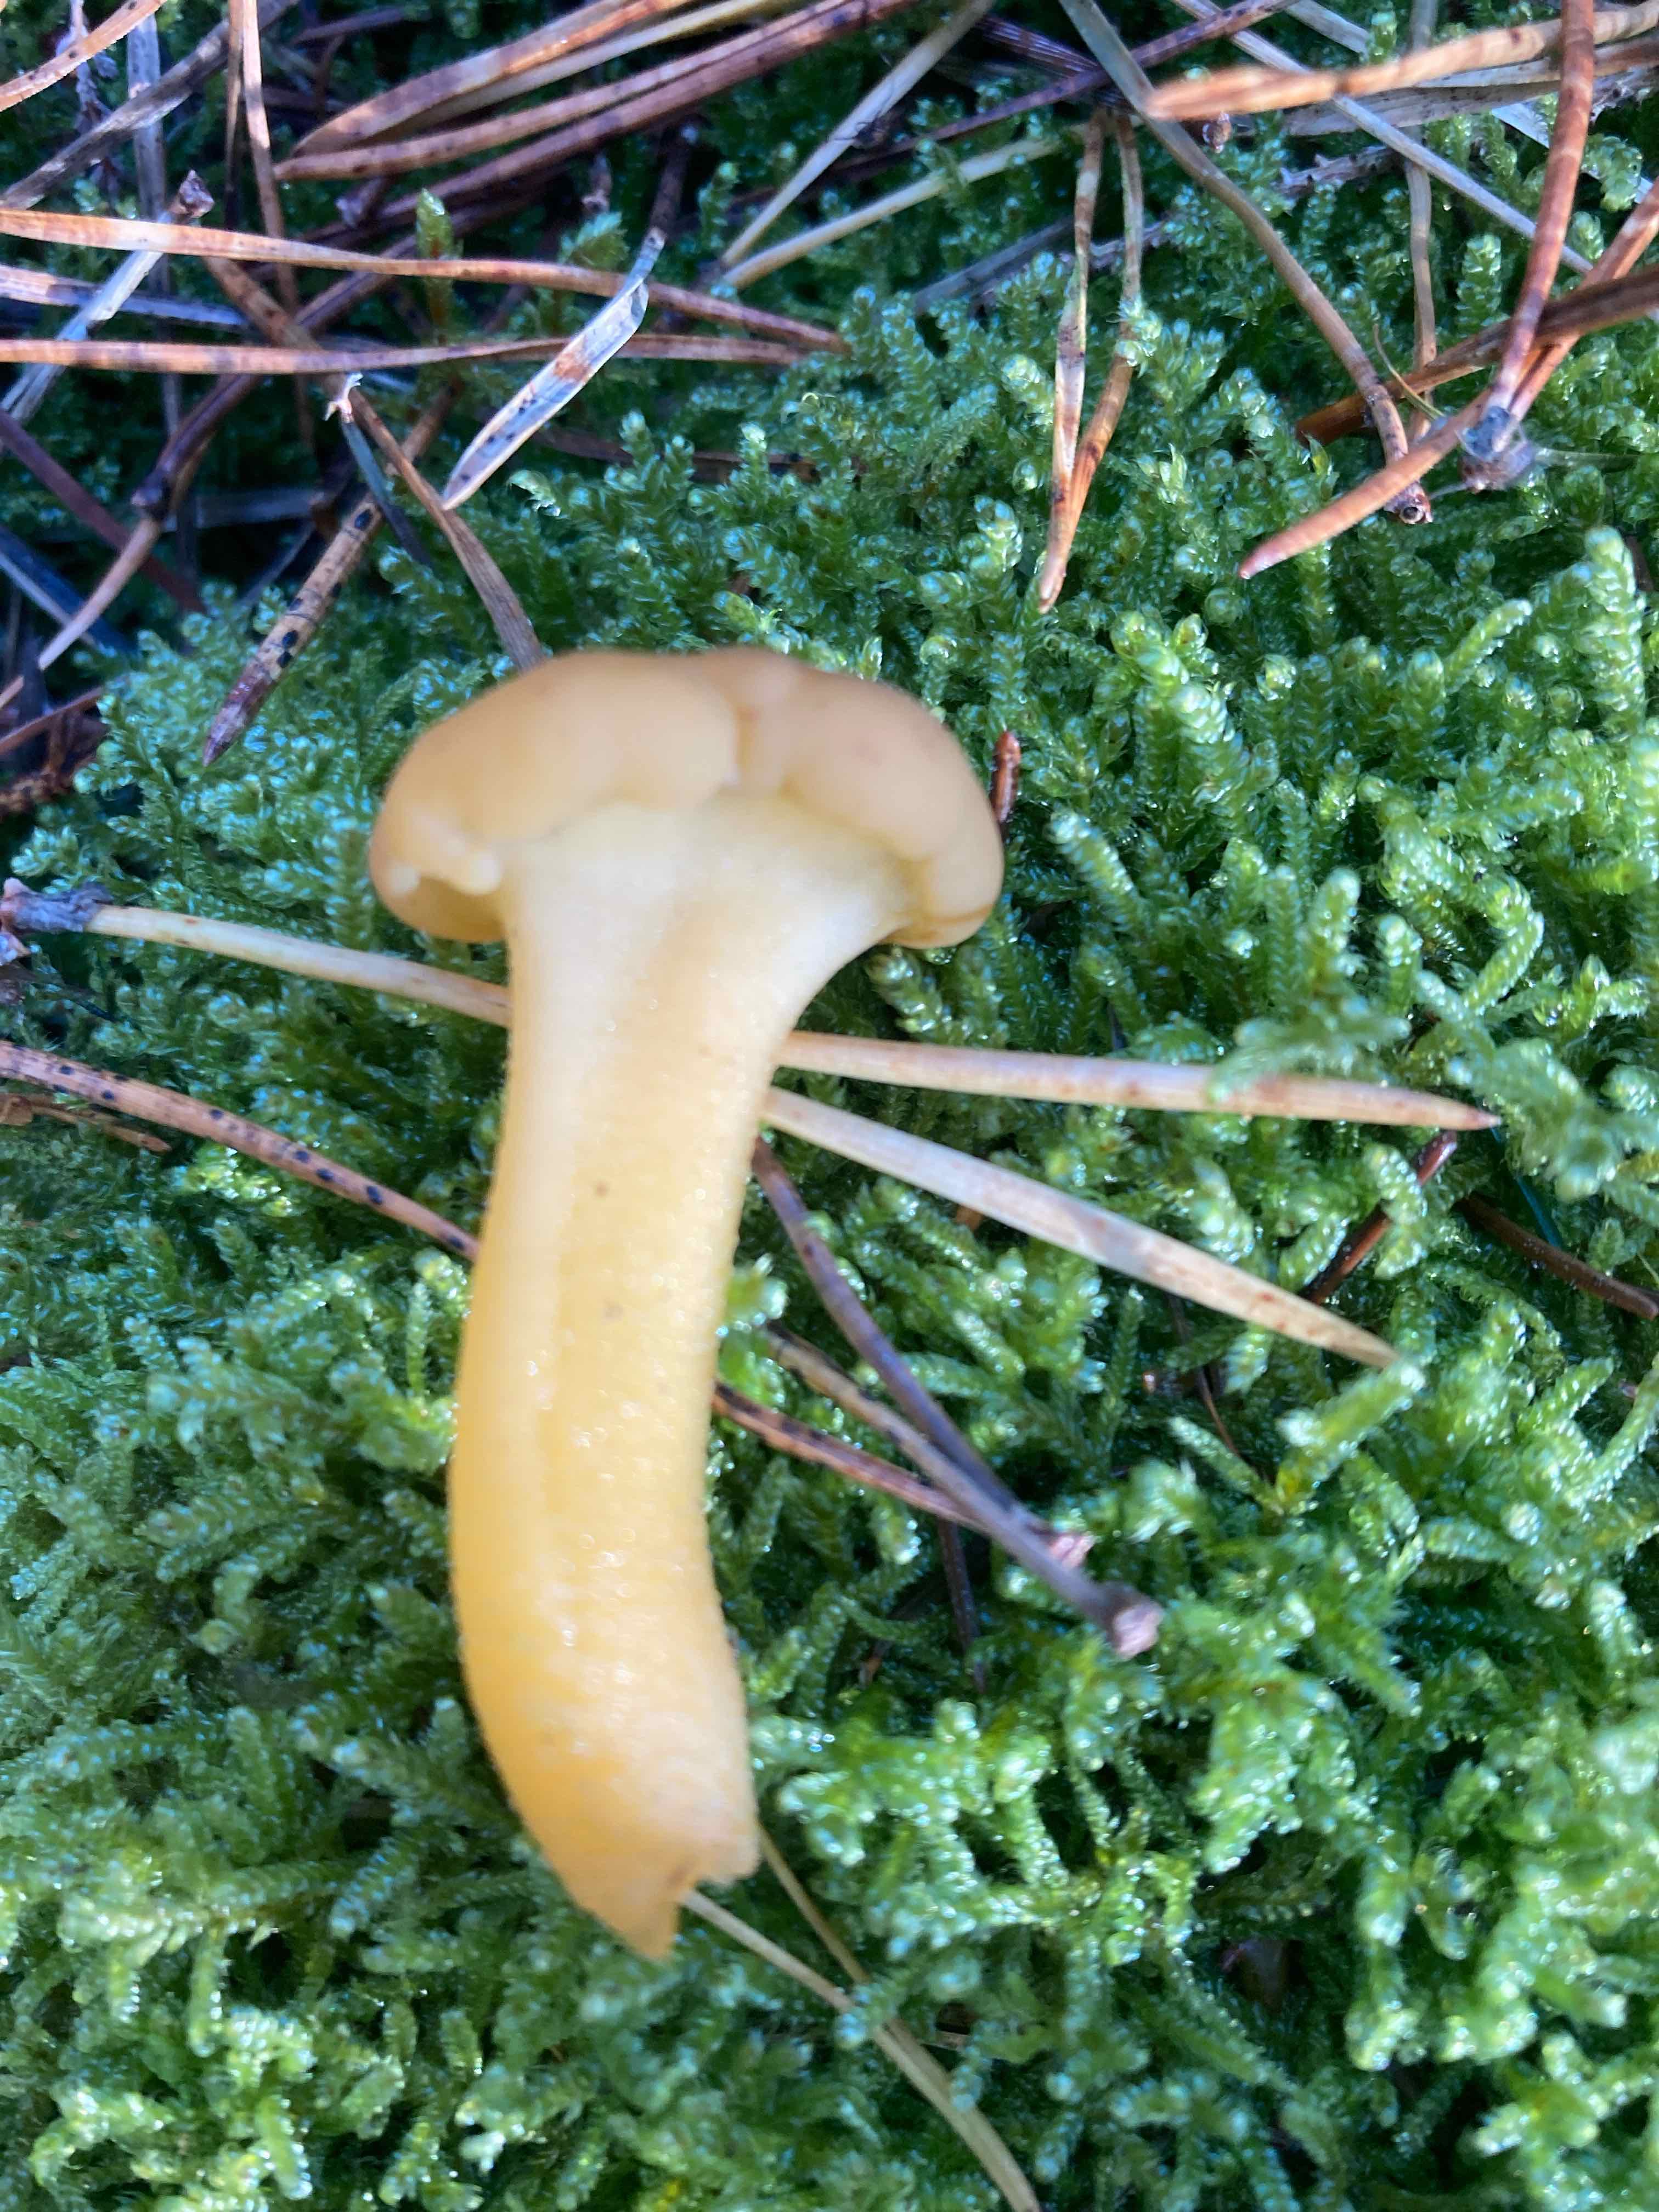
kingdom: Fungi
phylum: Ascomycota
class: Leotiomycetes
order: Leotiales
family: Leotiaceae
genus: Leotia
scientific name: Leotia lubrica
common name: ravsvamp
